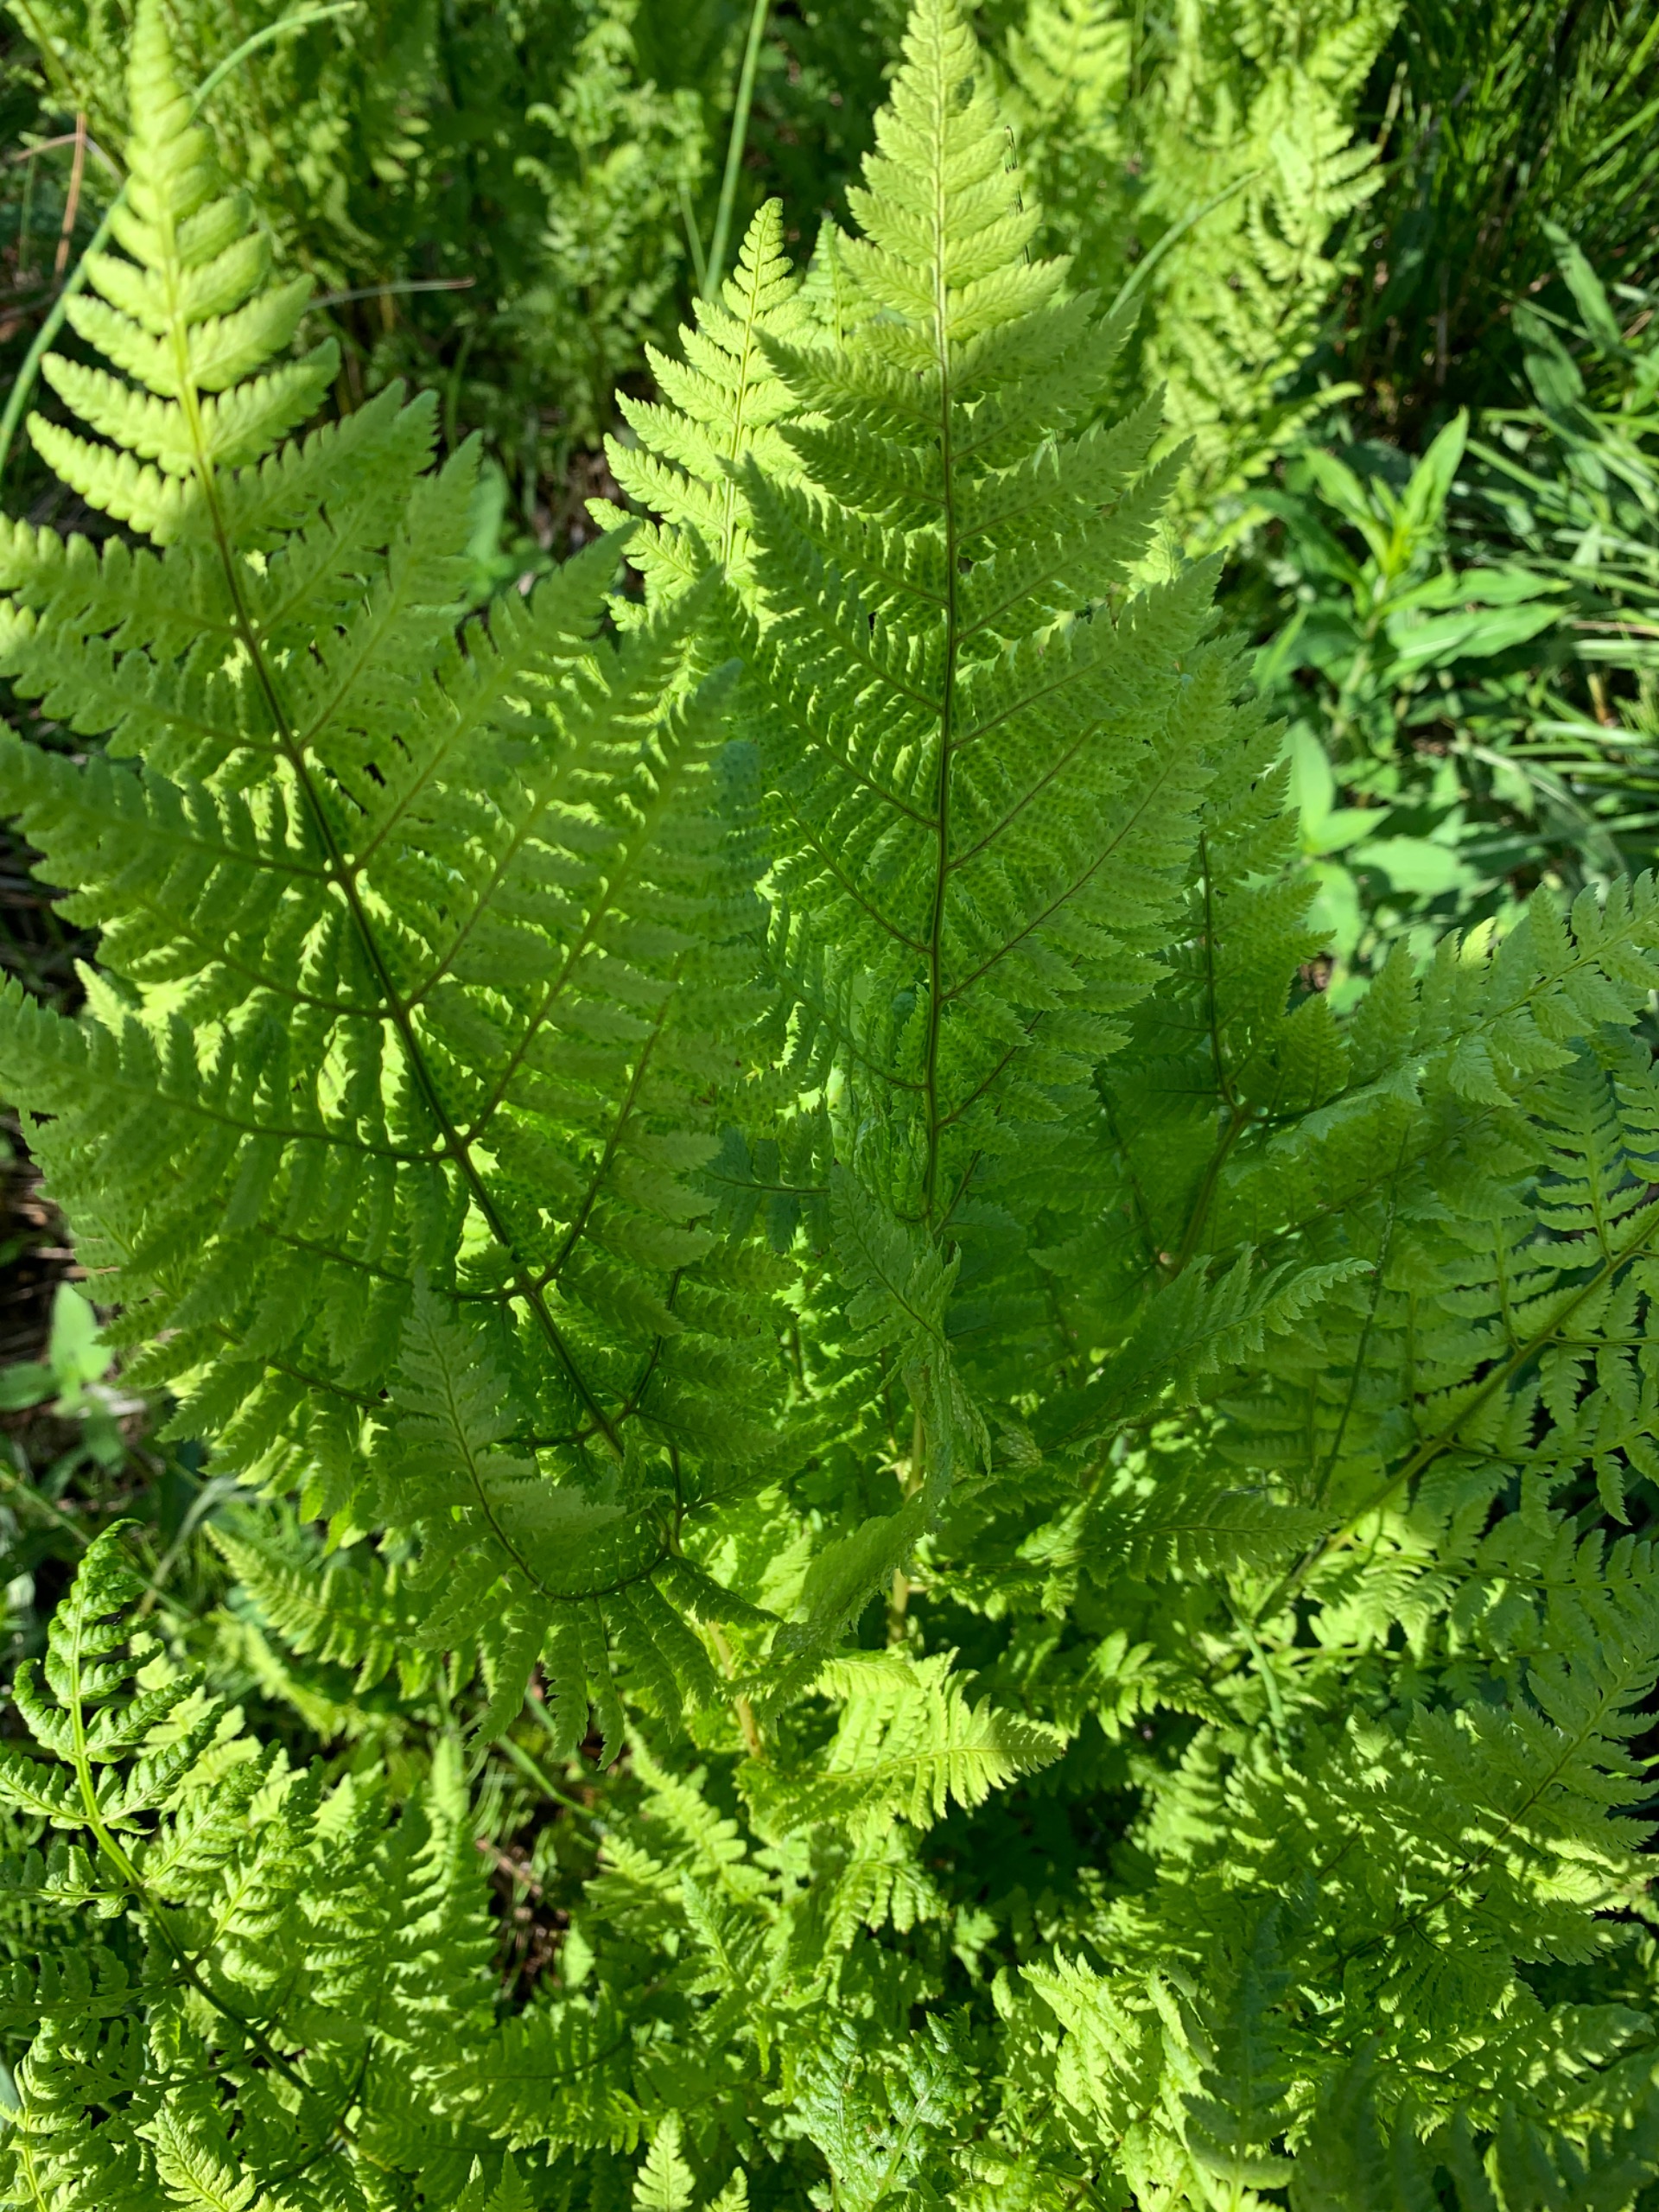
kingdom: Plantae
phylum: Tracheophyta
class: Polypodiopsida
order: Polypodiales
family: Dryopteridaceae
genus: Dryopteris
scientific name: Dryopteris carthusiana
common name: Smalbladet mangeløv
